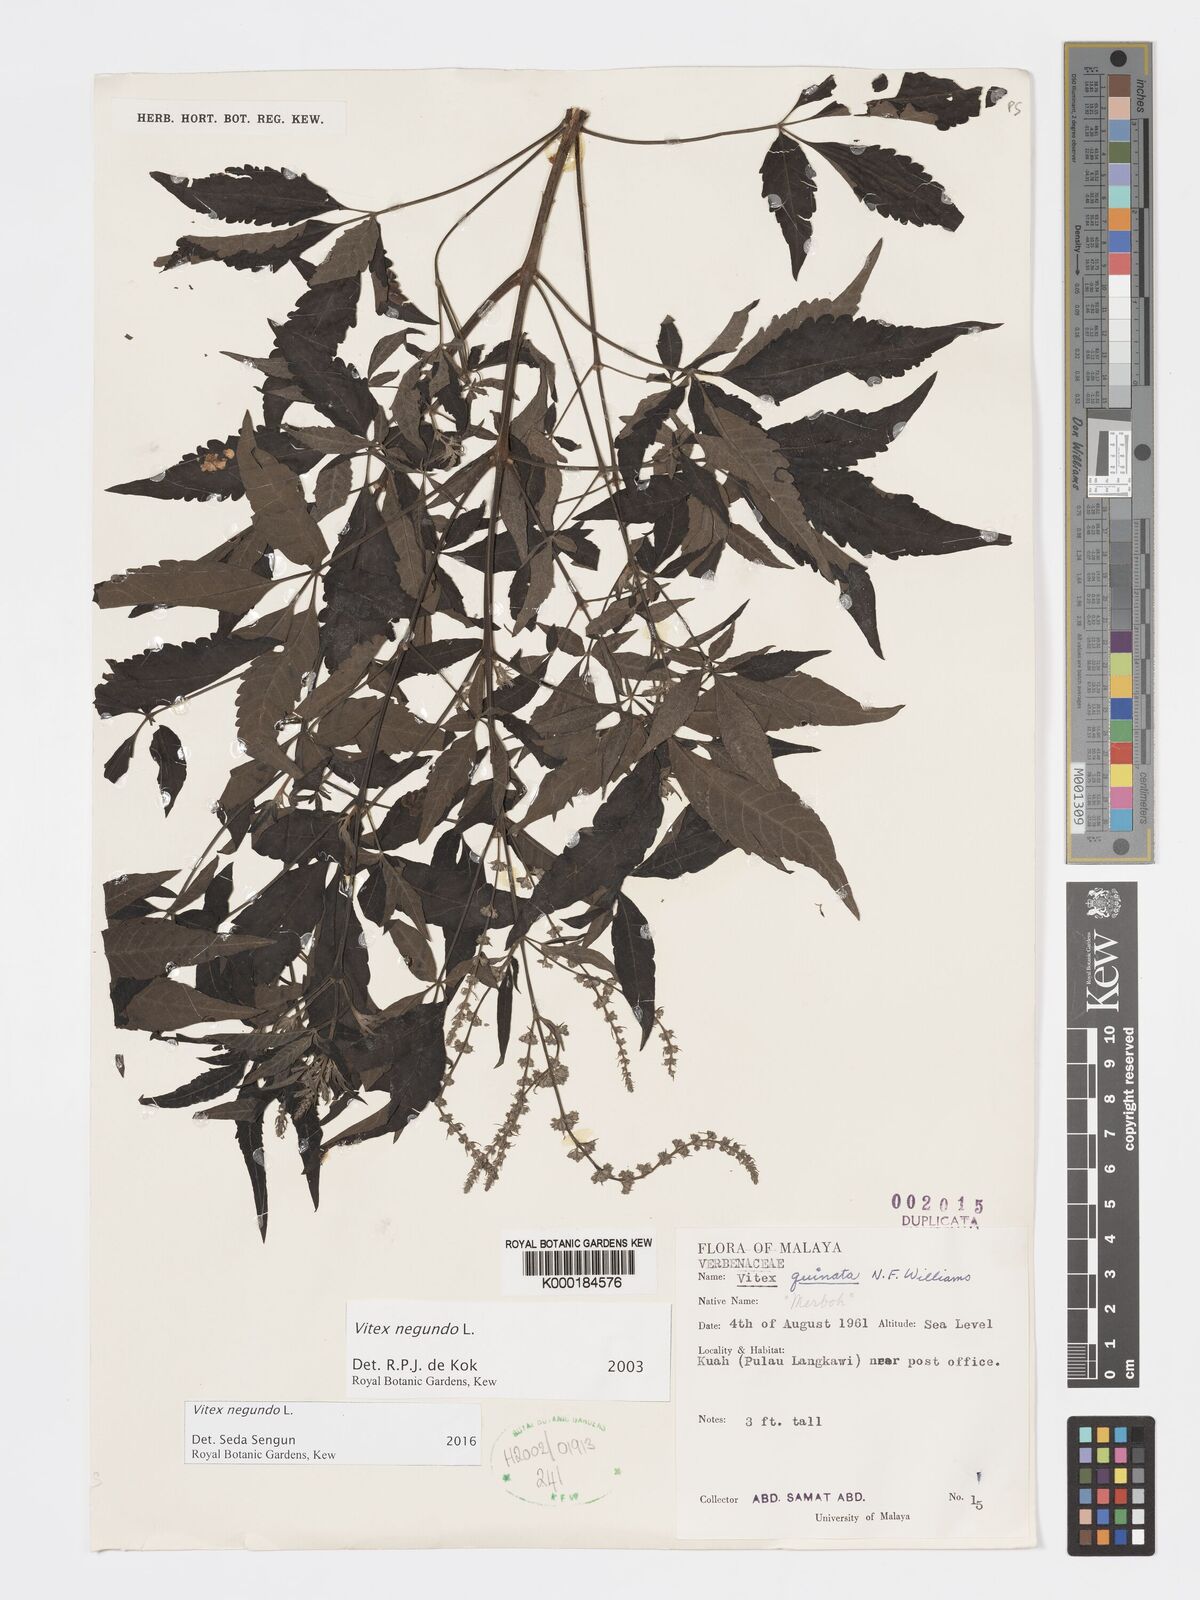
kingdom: Plantae
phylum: Tracheophyta
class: Magnoliopsida
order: Lamiales
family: Lamiaceae
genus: Vitex
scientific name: Vitex negundo
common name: Chinese chastetree
